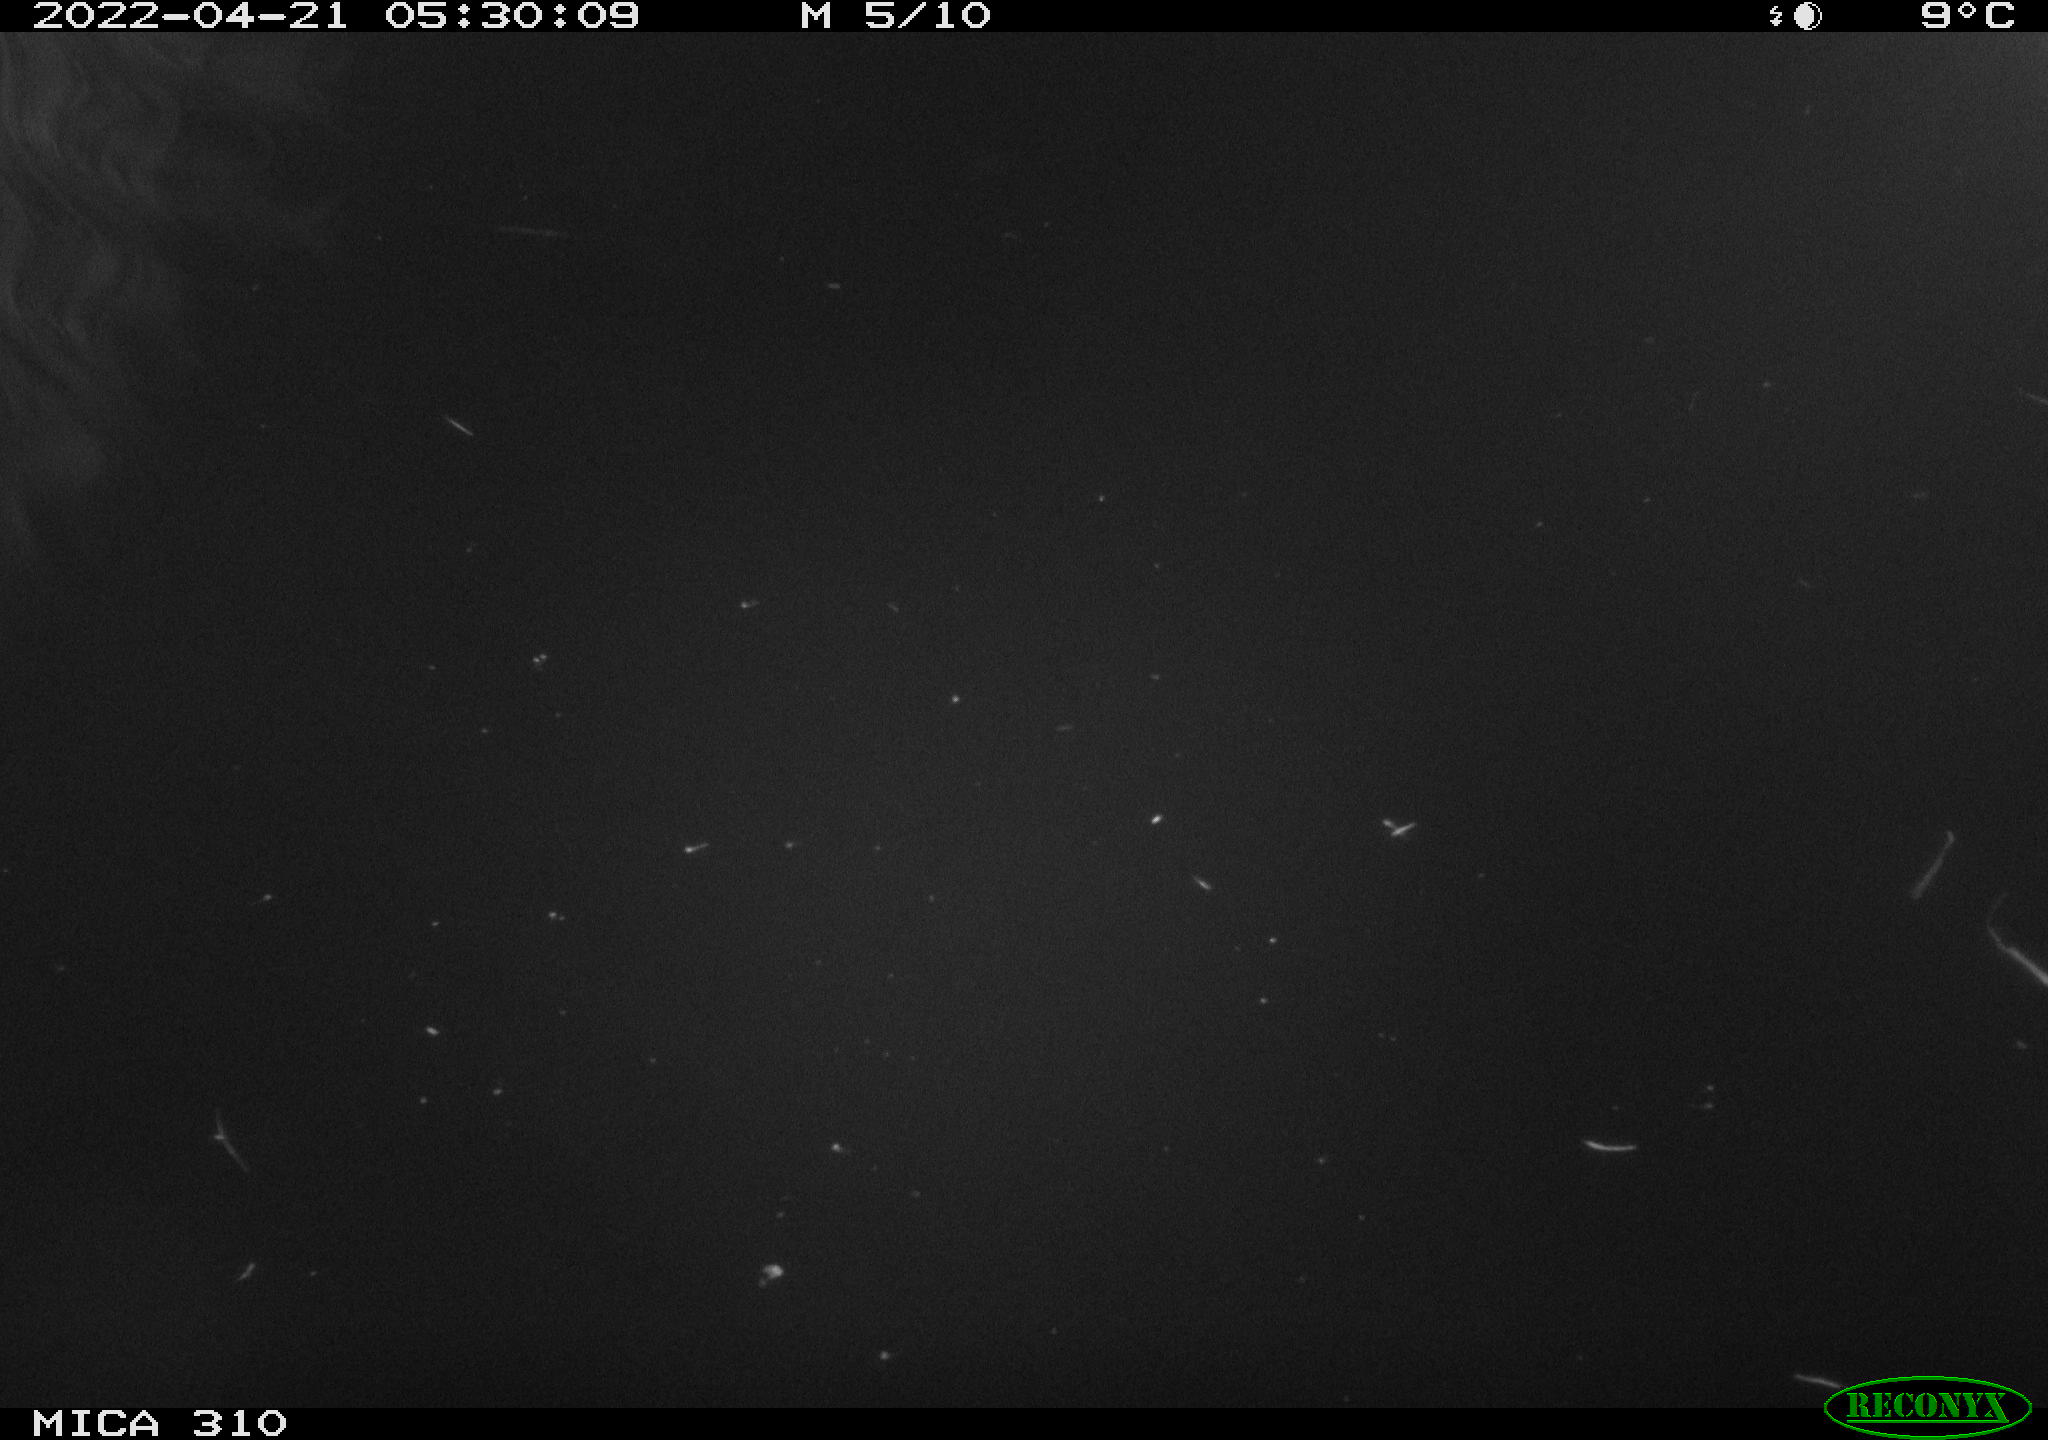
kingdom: Animalia
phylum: Chordata
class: Aves
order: Anseriformes
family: Anatidae
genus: Anas
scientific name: Anas platyrhynchos
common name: Mallard
